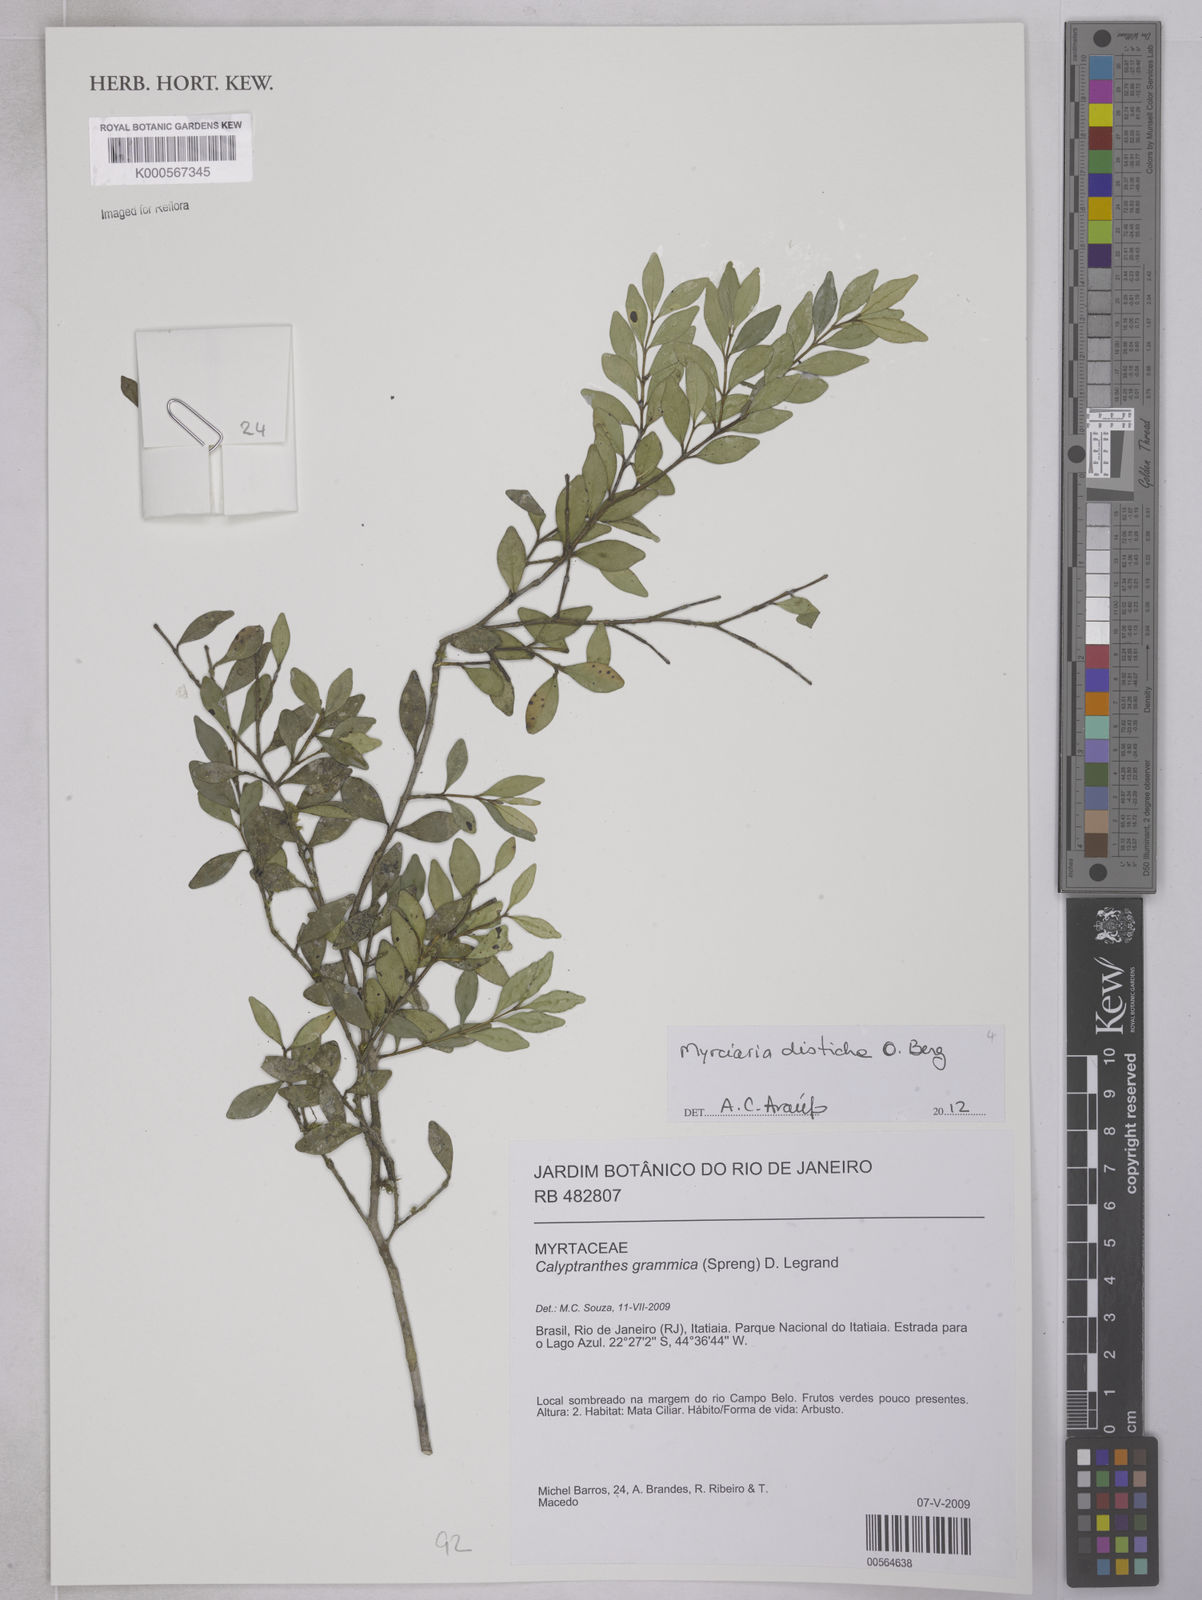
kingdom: Plantae
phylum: Tracheophyta
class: Magnoliopsida
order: Myrtales
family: Myrtaceae
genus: Myrcia
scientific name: Myrcia grammica
